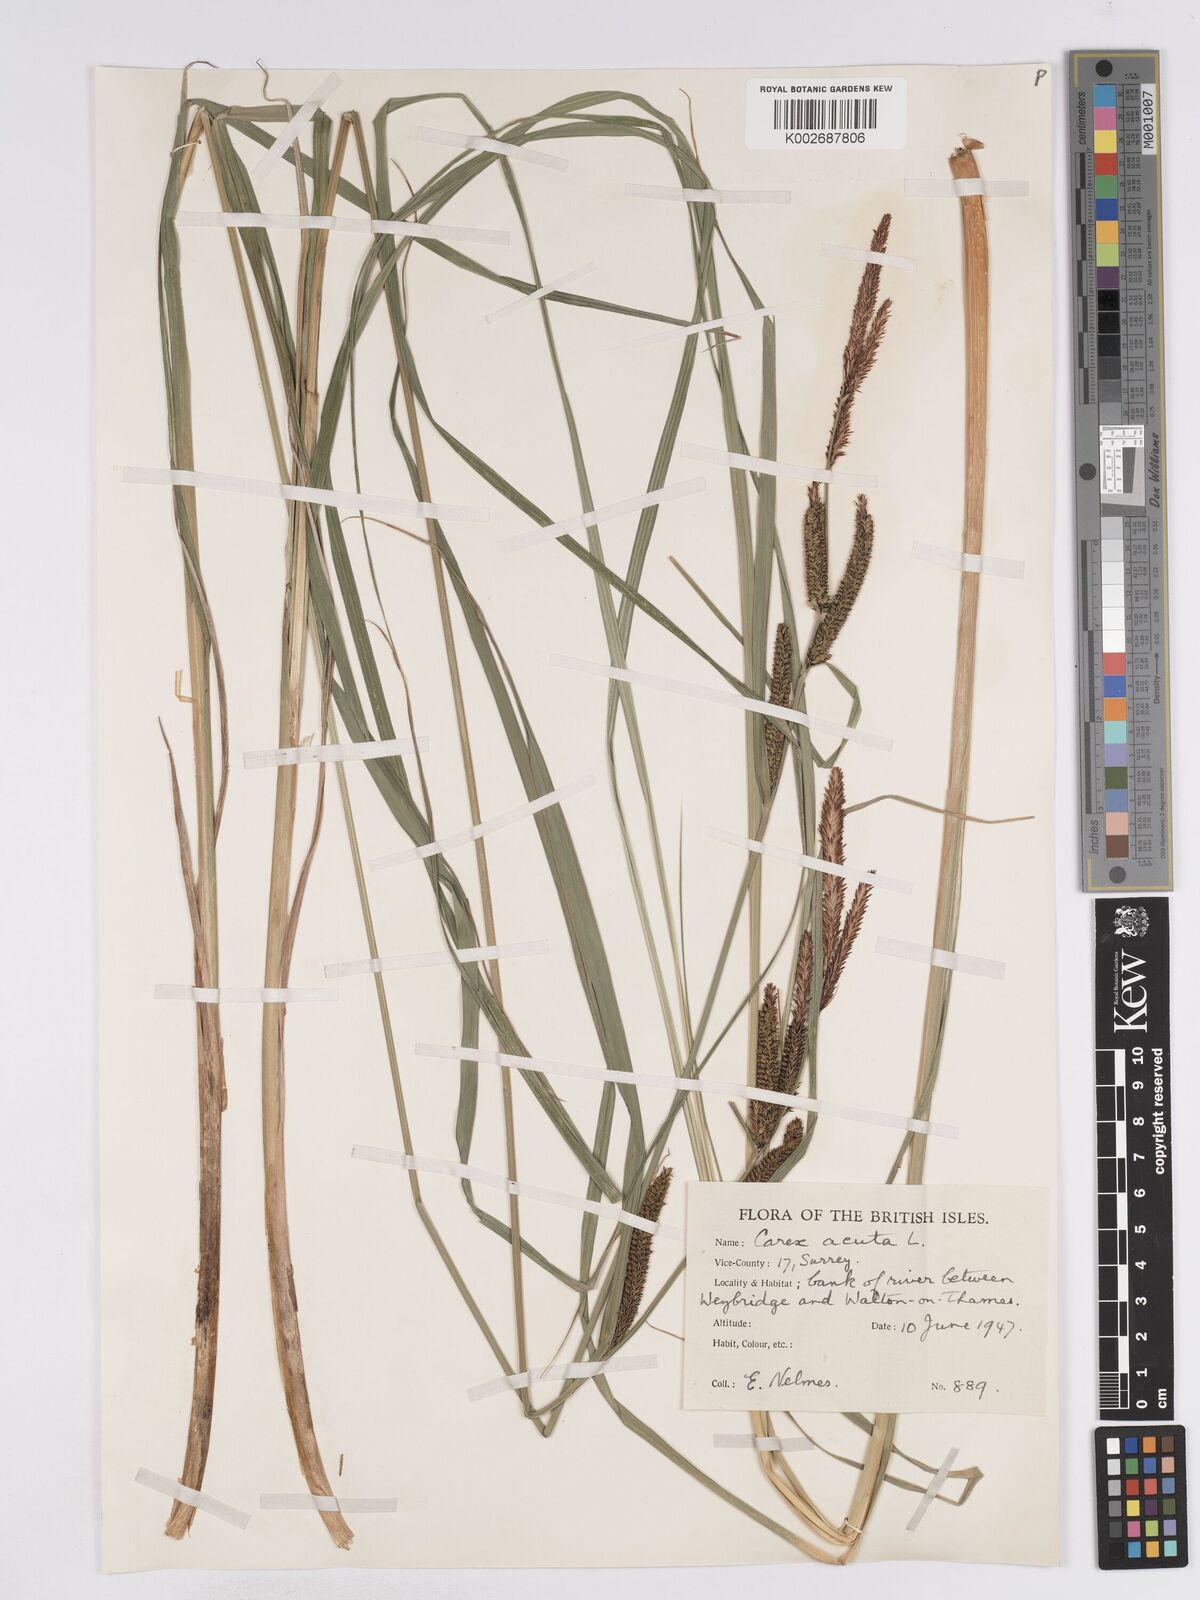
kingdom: Plantae
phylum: Tracheophyta
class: Liliopsida
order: Poales
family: Cyperaceae
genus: Carex
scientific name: Carex acuta
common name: Slender tufted-sedge
